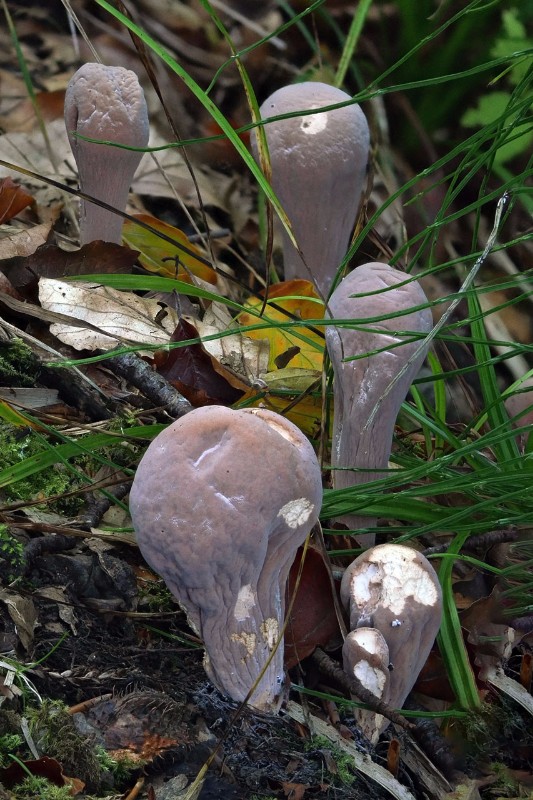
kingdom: Fungi
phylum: Basidiomycota
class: Agaricomycetes
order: Gomphales
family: Clavariadelphaceae
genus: Clavariadelphus
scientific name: Clavariadelphus pistillaris
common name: herkules-kæmpekølle
